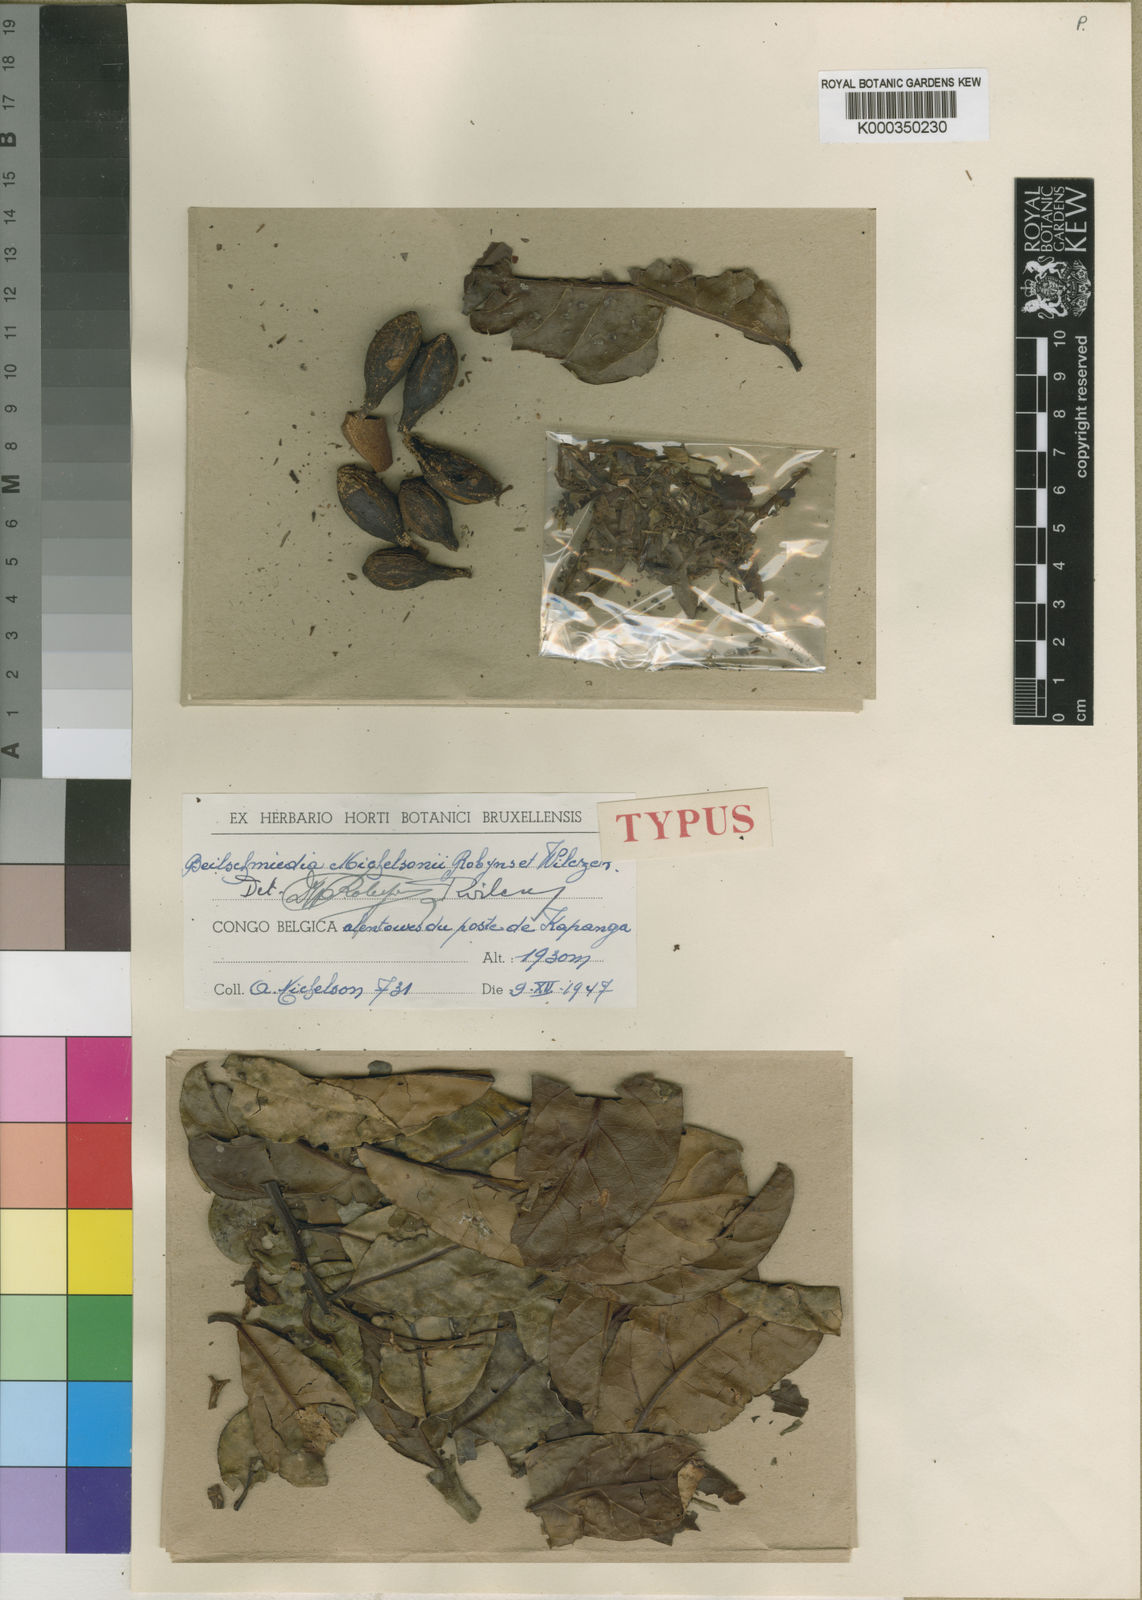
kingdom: Plantae
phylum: Tracheophyta
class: Magnoliopsida
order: Laurales
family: Lauraceae
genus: Beilschmiedia
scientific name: Beilschmiedia michelsonii
